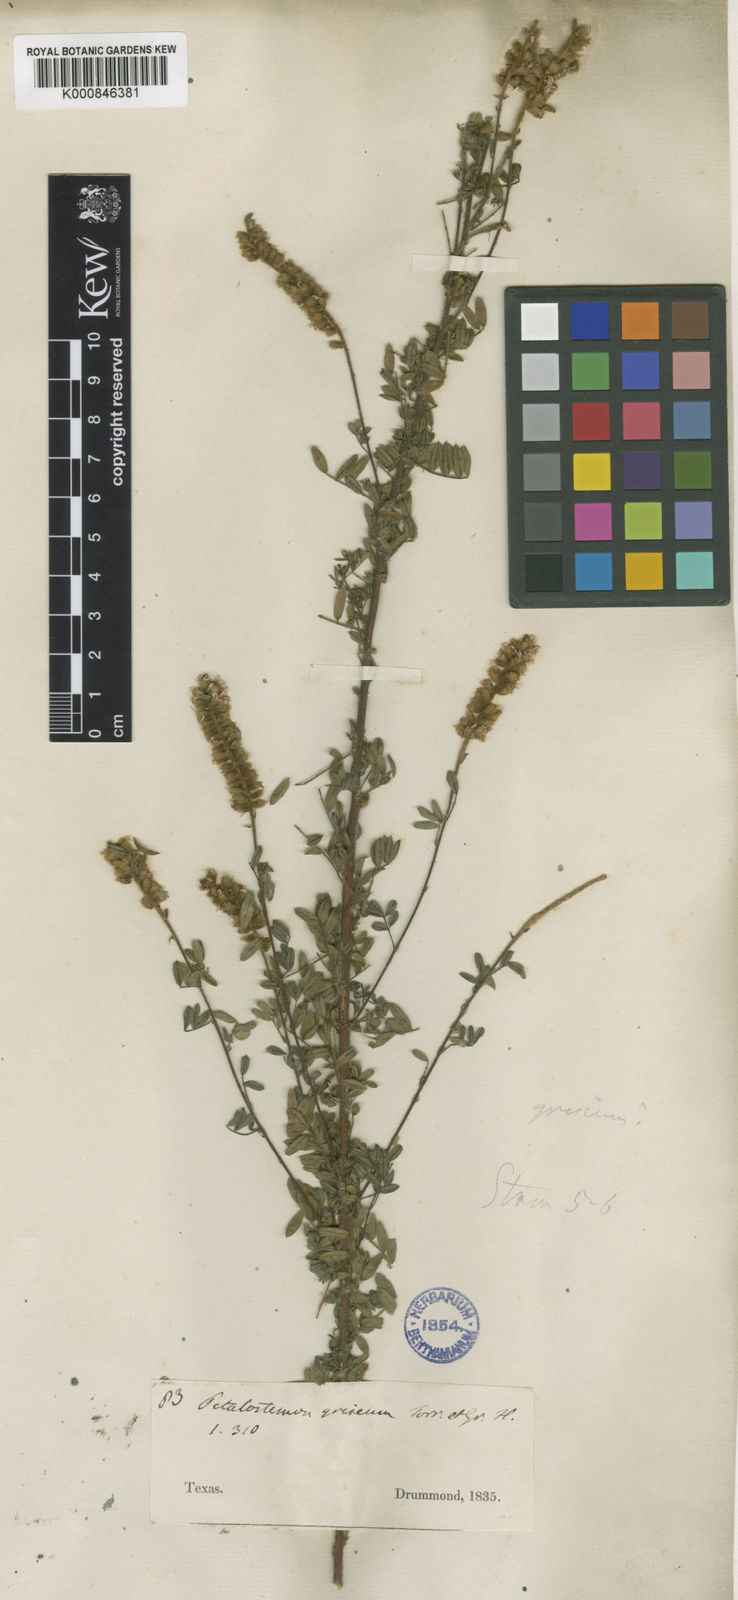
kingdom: Plantae
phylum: Tracheophyta
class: Magnoliopsida
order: Fabales
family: Fabaceae
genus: Dalea
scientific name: Dalea villosa
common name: Silky prairie-clover
